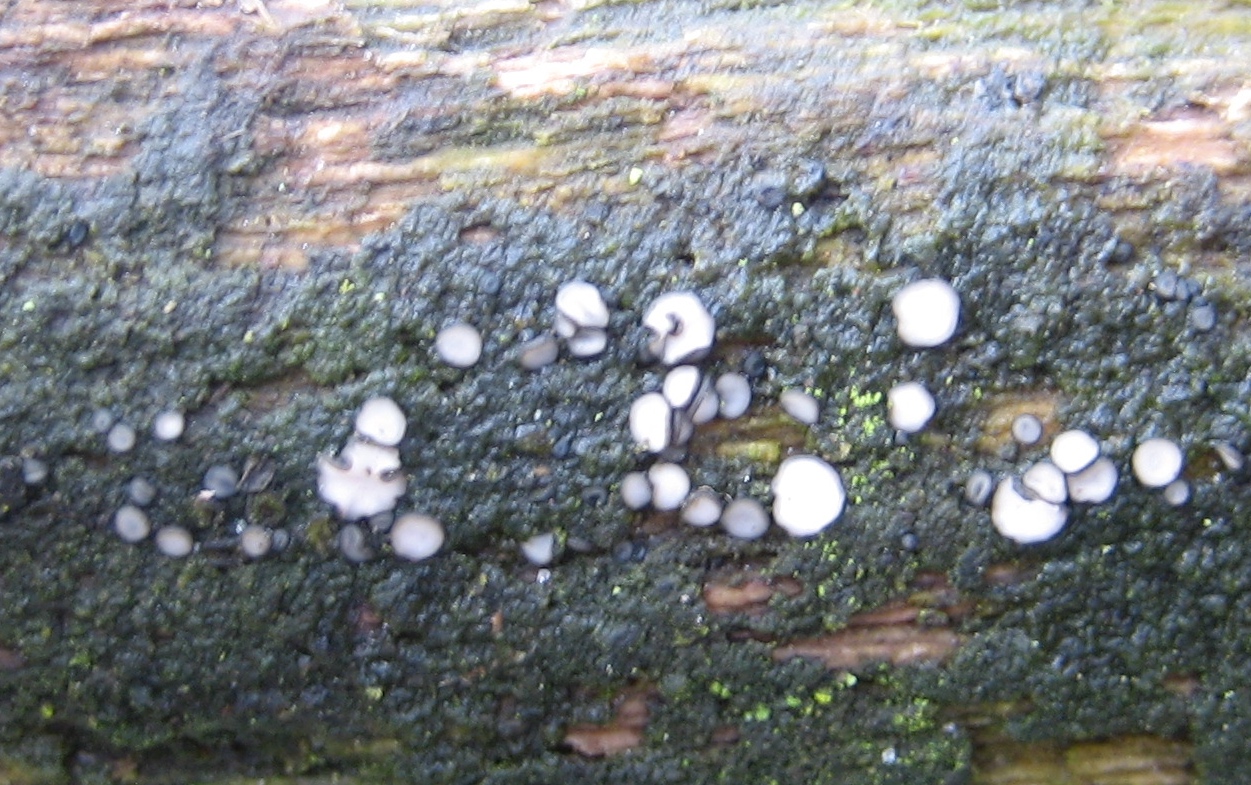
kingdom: Fungi
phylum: Ascomycota
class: Leotiomycetes
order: Helotiales
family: Mollisiaceae
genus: Mollisia
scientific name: Mollisia
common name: gråskive
